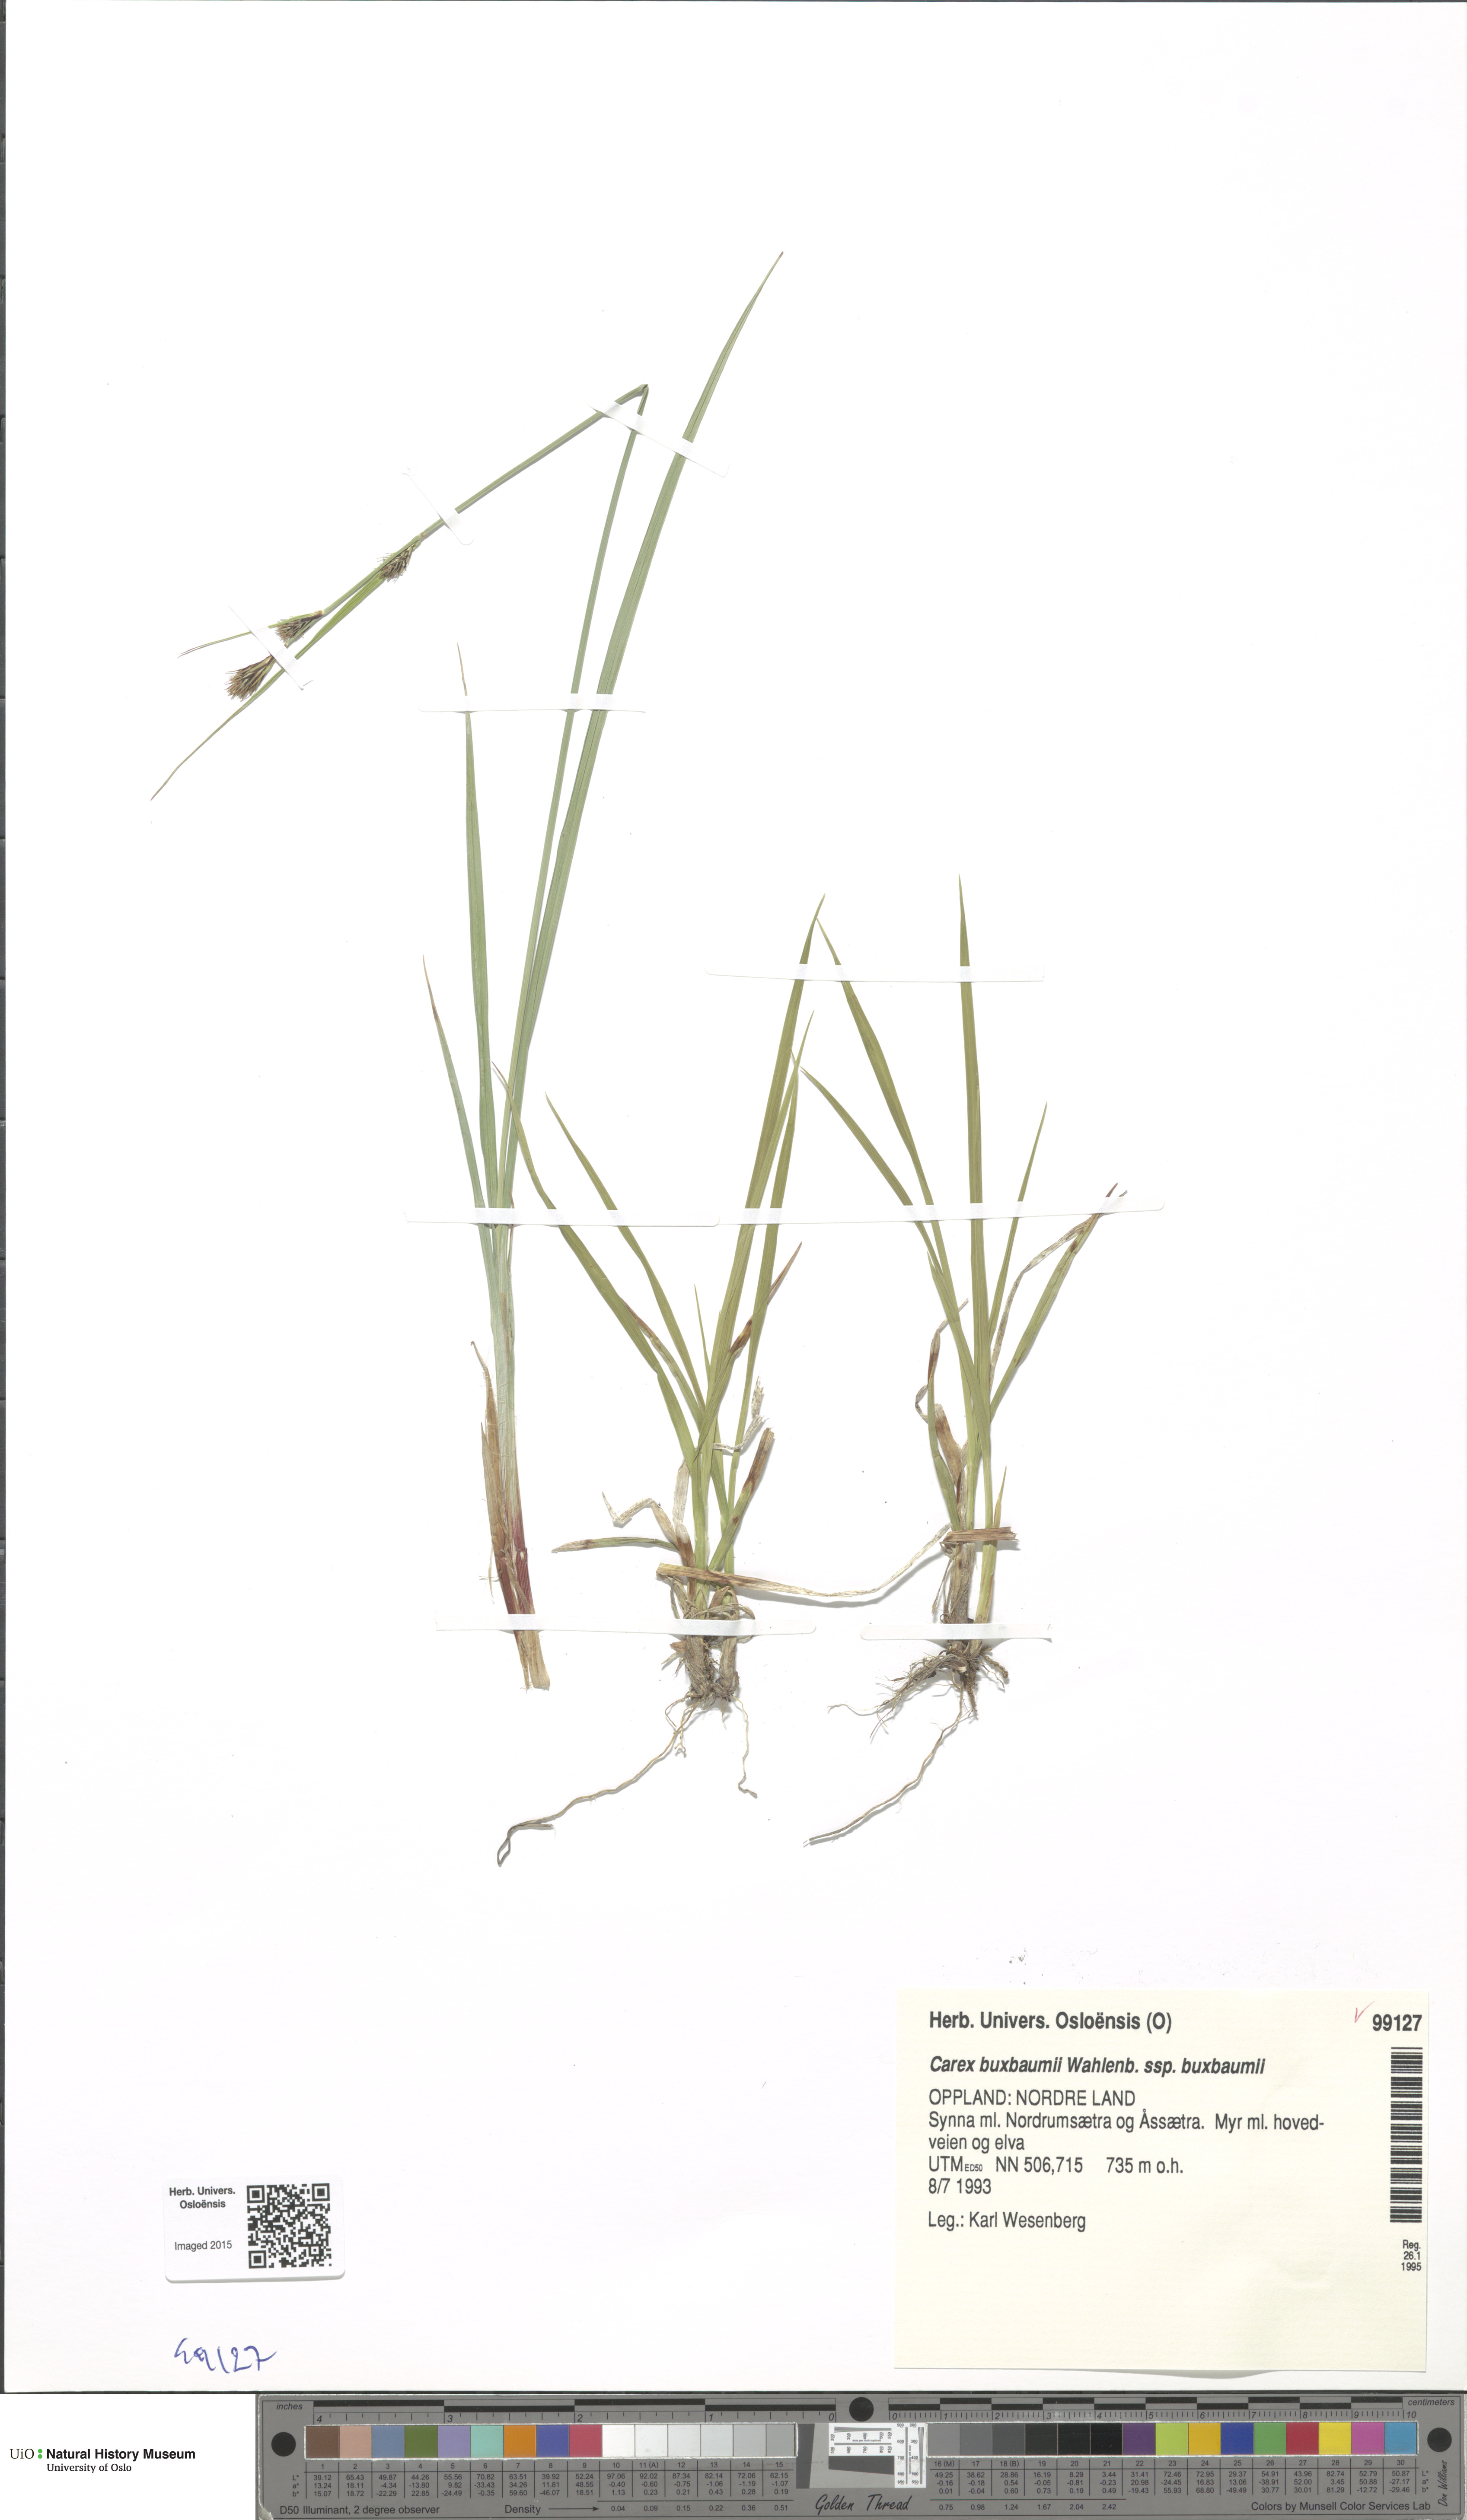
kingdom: Plantae
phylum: Tracheophyta
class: Liliopsida
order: Poales
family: Cyperaceae
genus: Carex
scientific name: Carex buxbaumii
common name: Club sedge
